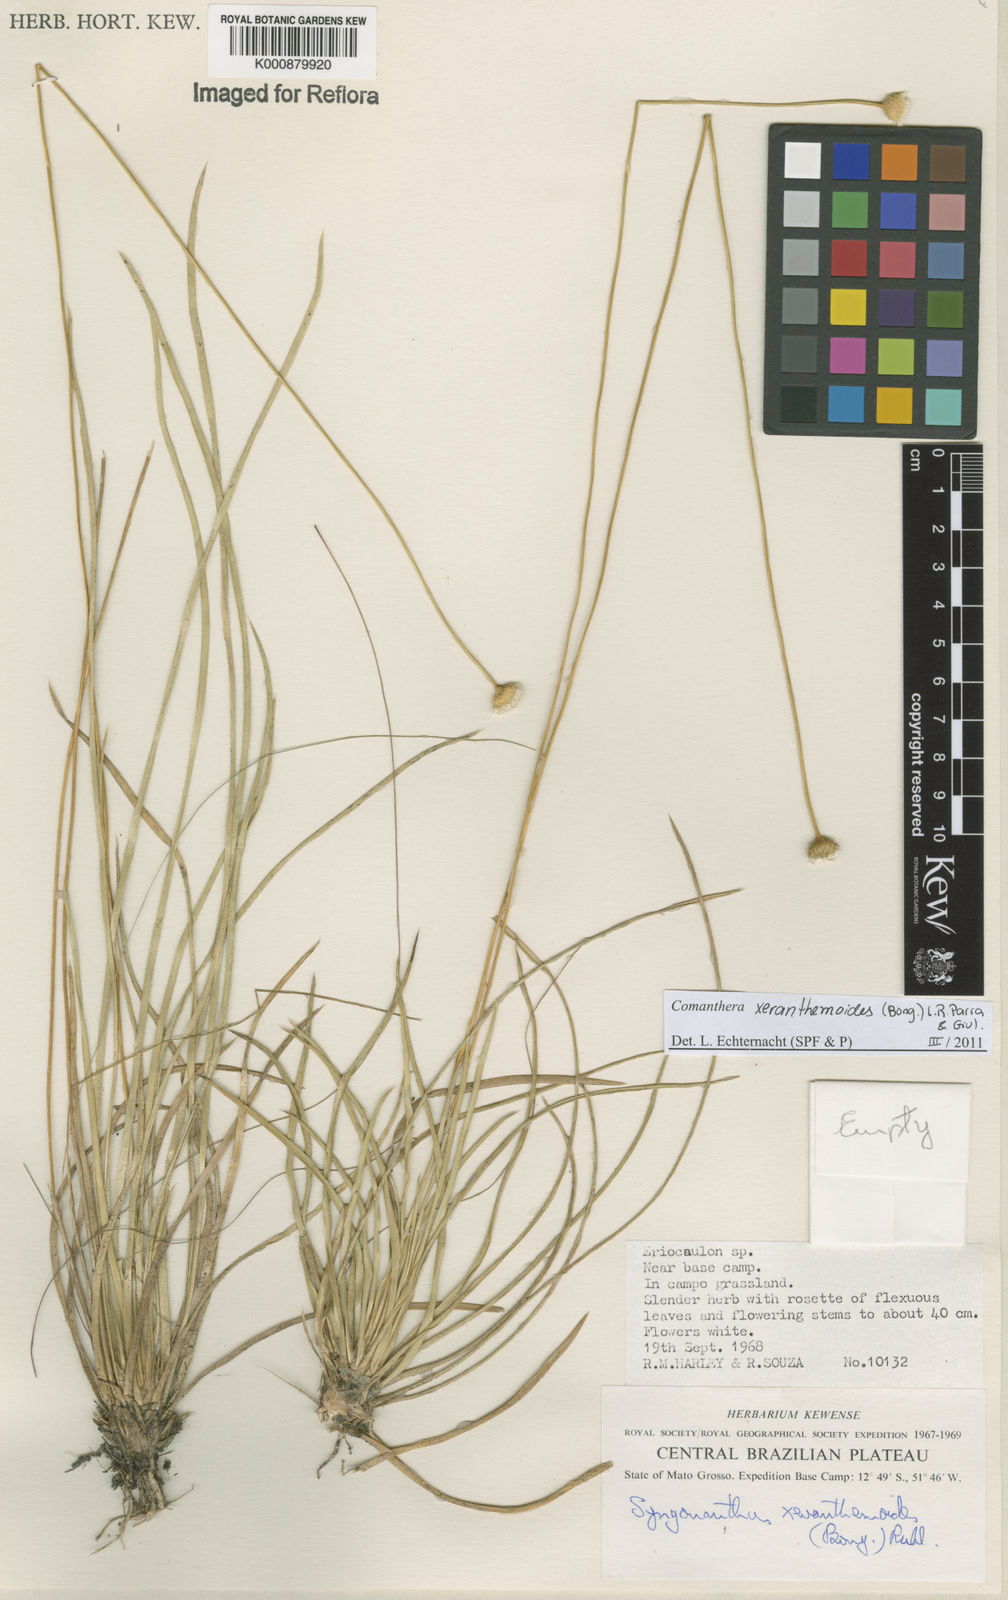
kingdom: Plantae
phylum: Tracheophyta
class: Liliopsida
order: Poales
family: Eriocaulaceae
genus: Comanthera
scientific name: Comanthera xeranthemoides
